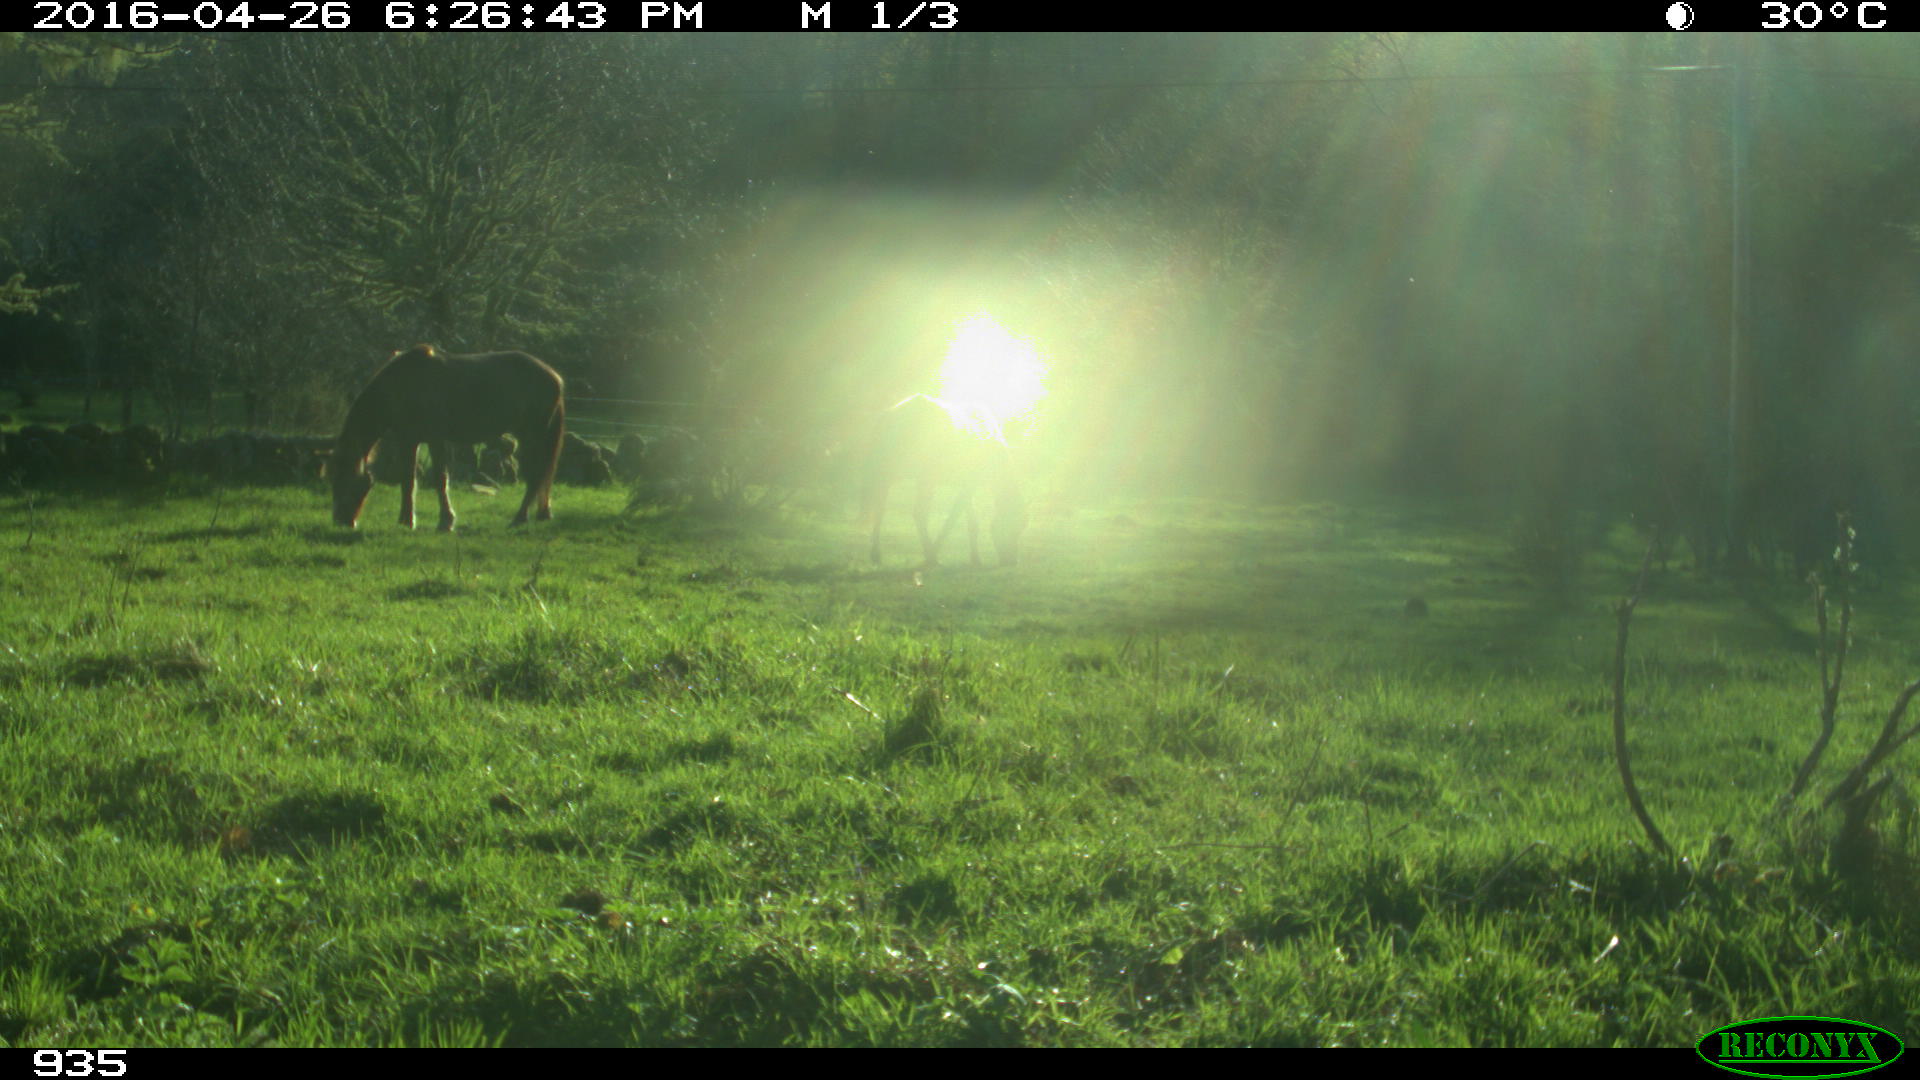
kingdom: Animalia
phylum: Chordata
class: Mammalia
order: Perissodactyla
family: Equidae
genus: Equus
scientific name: Equus caballus
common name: Horse
